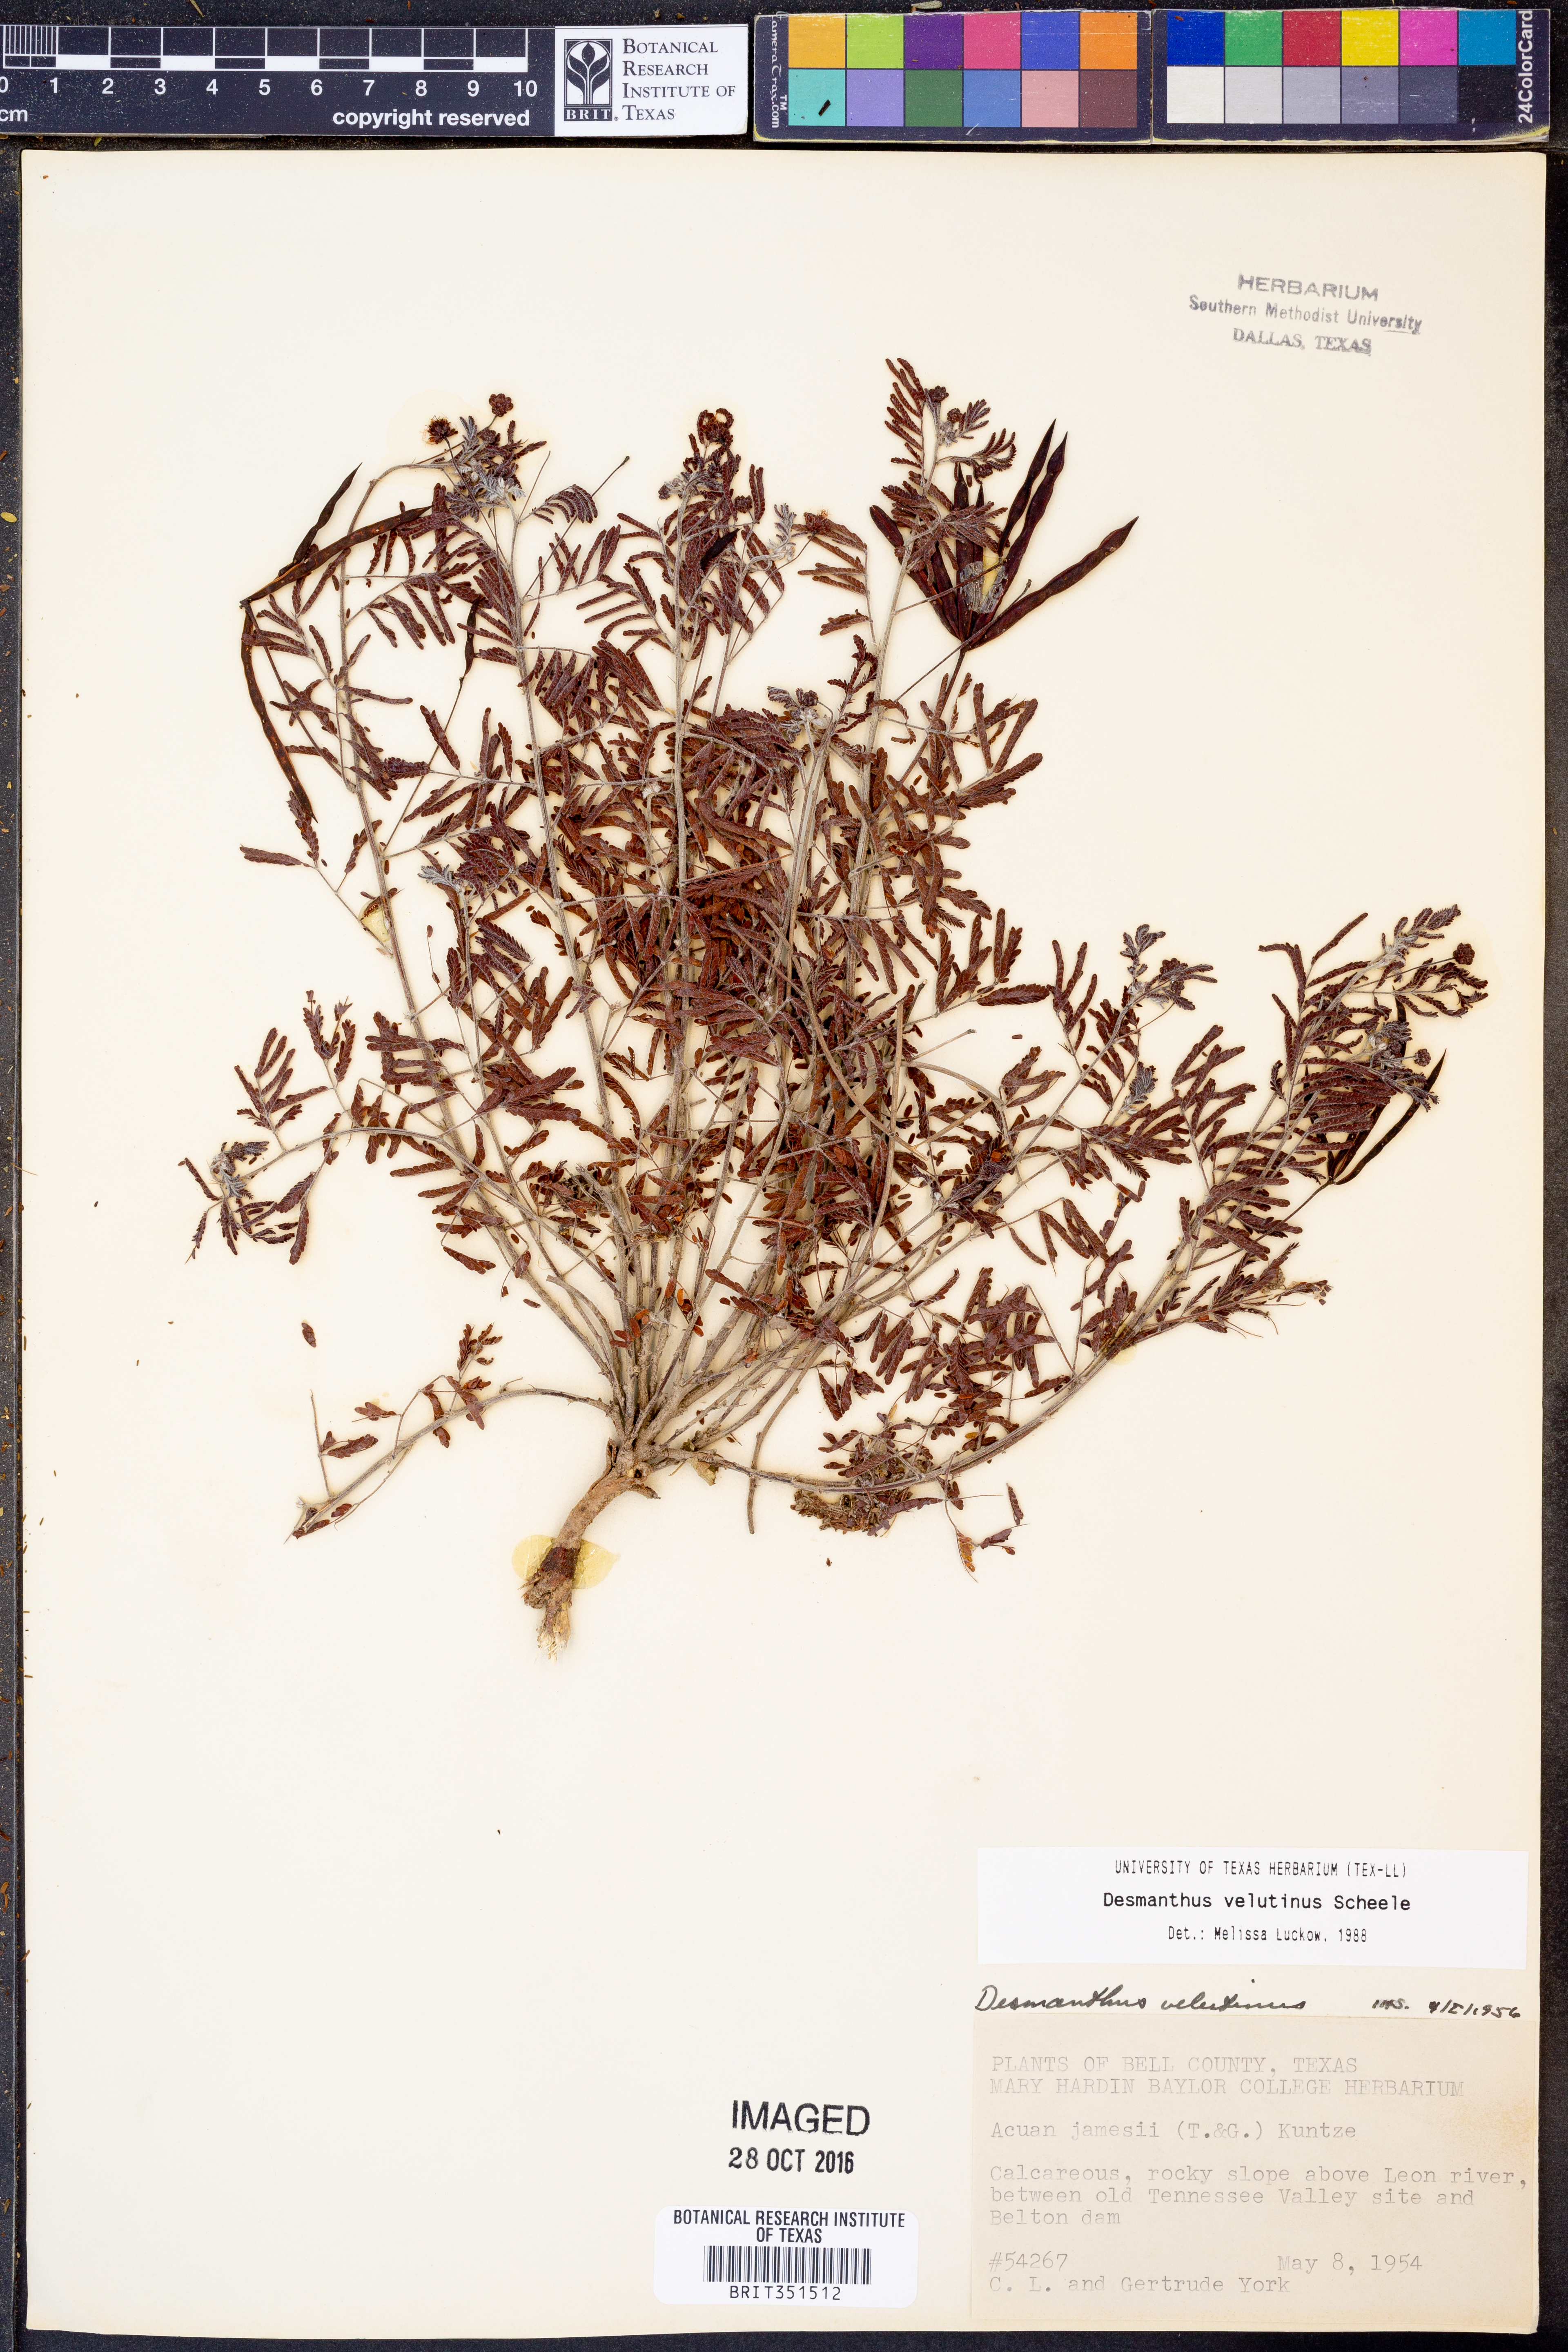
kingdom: Plantae
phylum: Tracheophyta
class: Magnoliopsida
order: Fabales
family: Fabaceae
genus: Desmanthus
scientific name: Desmanthus velutinus
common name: Velvet bundle-flower
